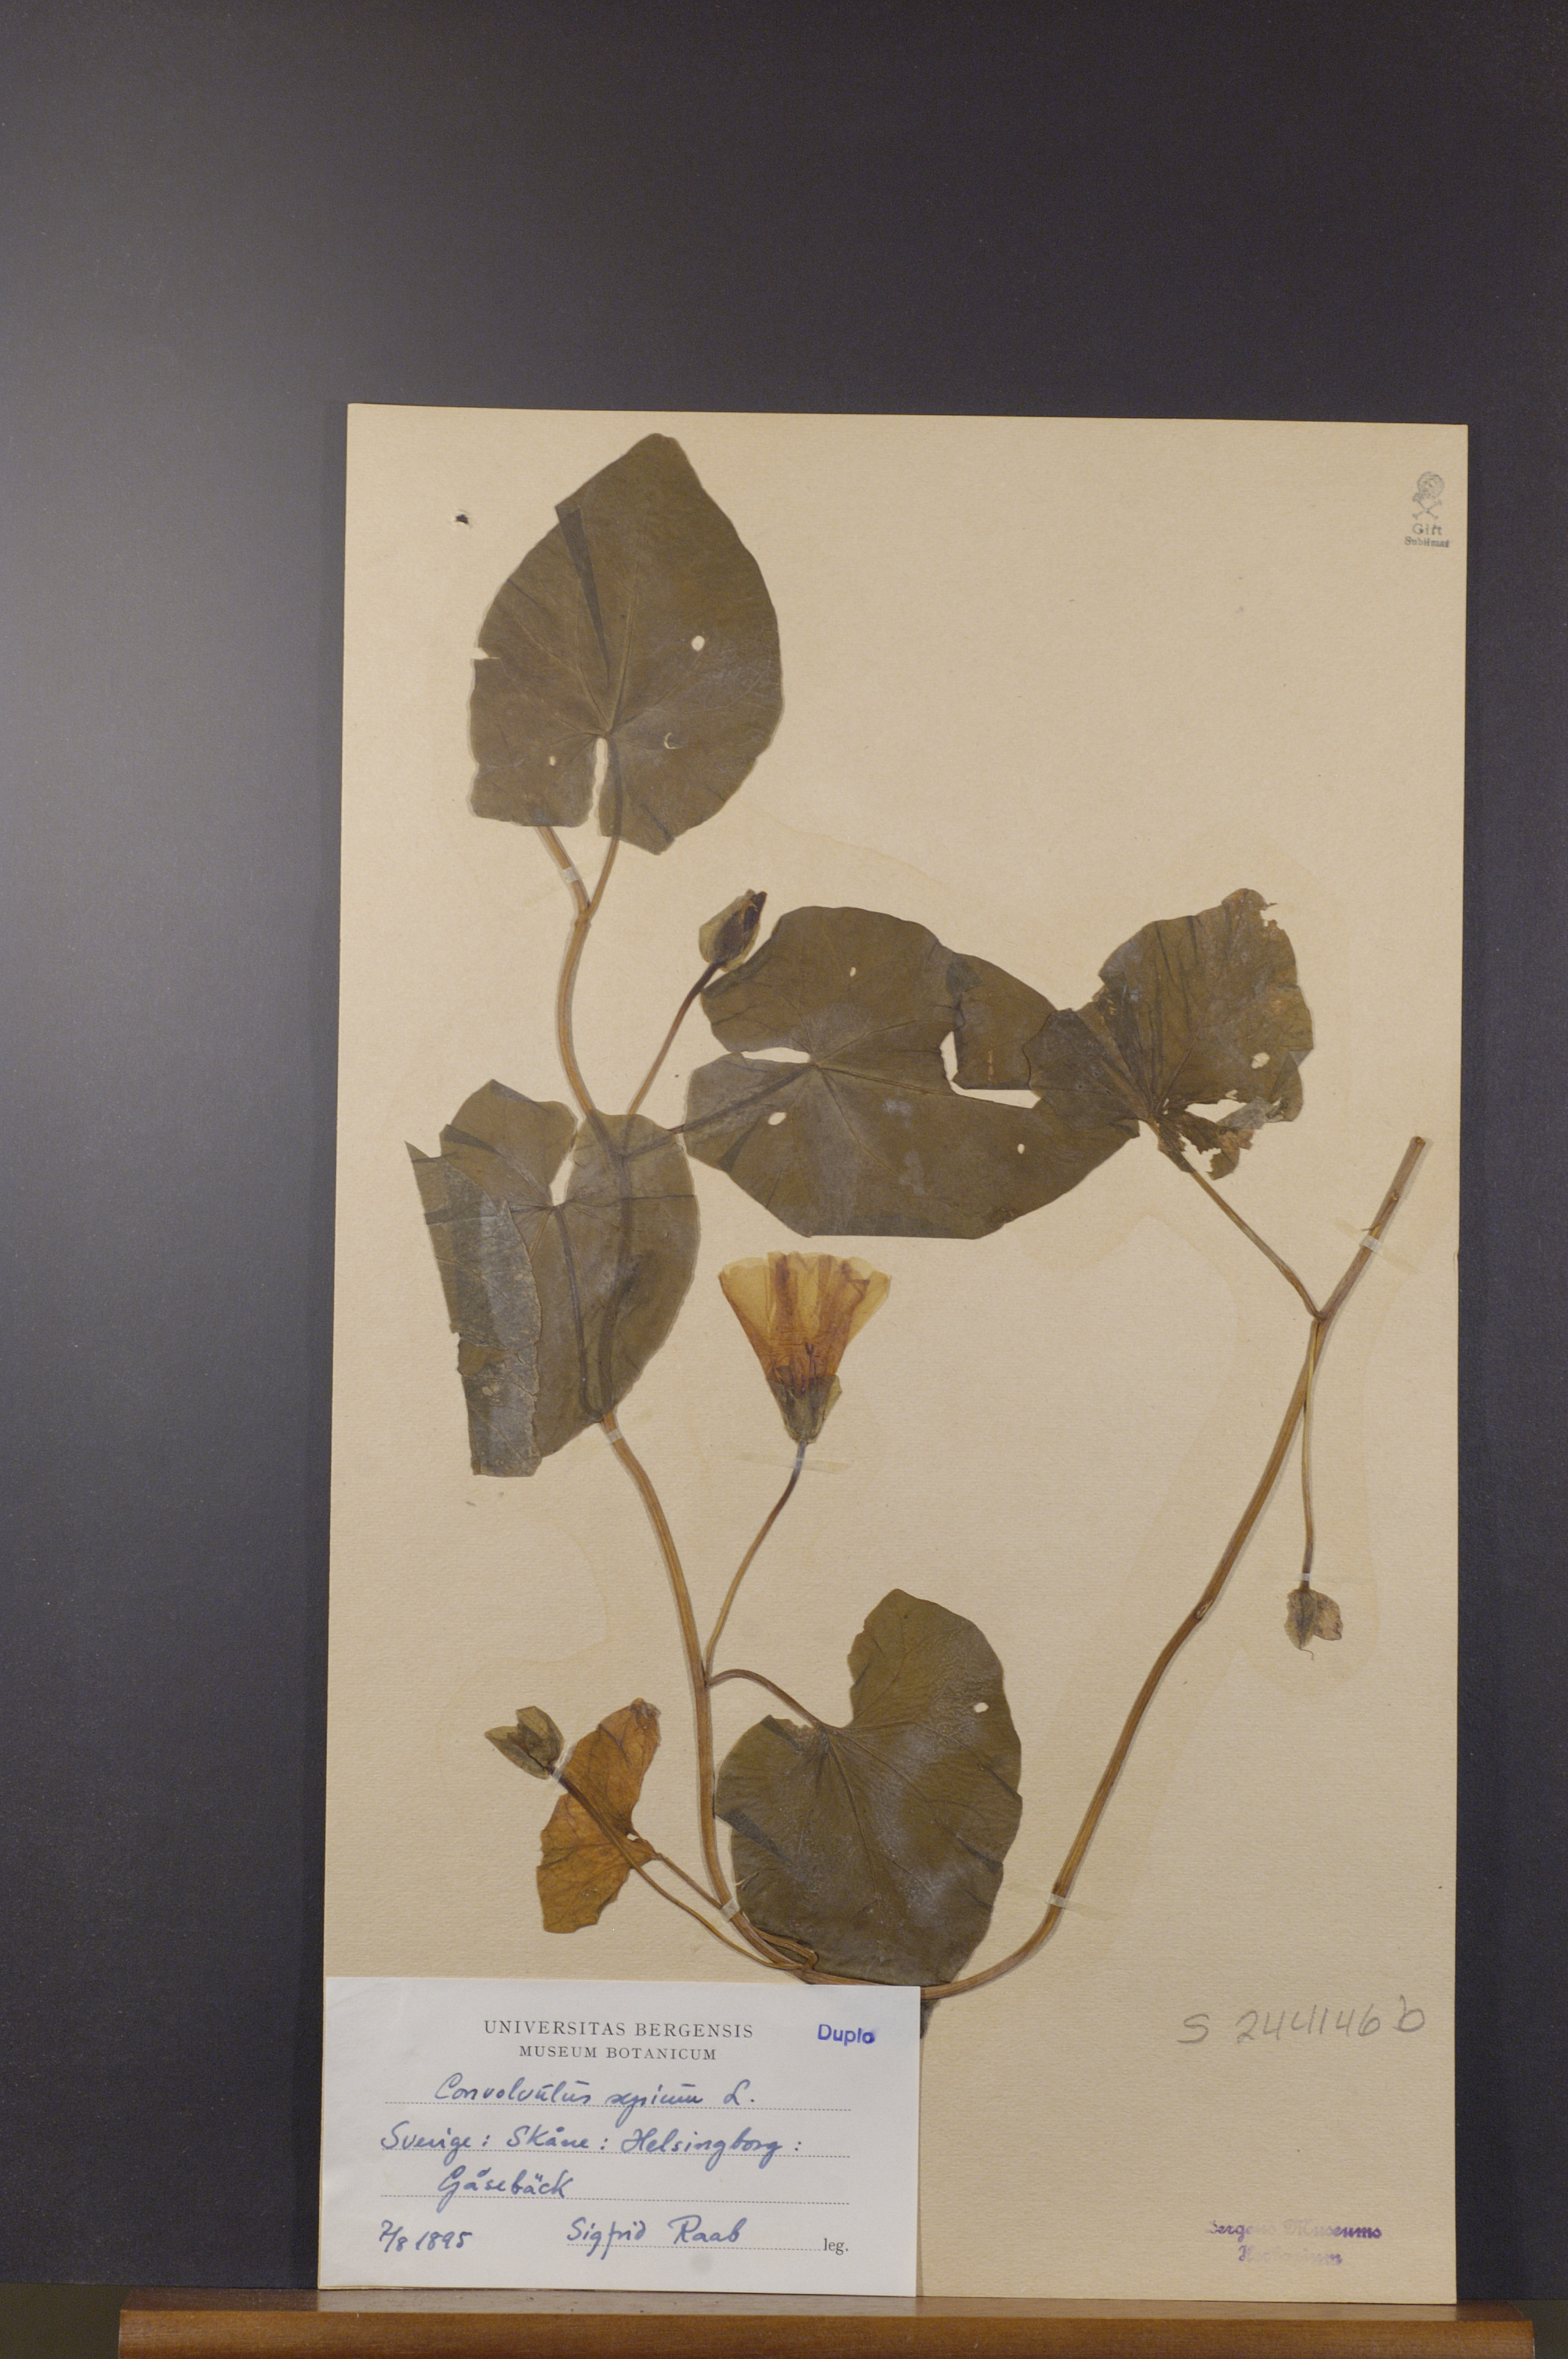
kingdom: Plantae
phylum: Tracheophyta
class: Magnoliopsida
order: Solanales
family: Convolvulaceae
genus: Calystegia
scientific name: Calystegia sepium
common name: Hedge bindweed
